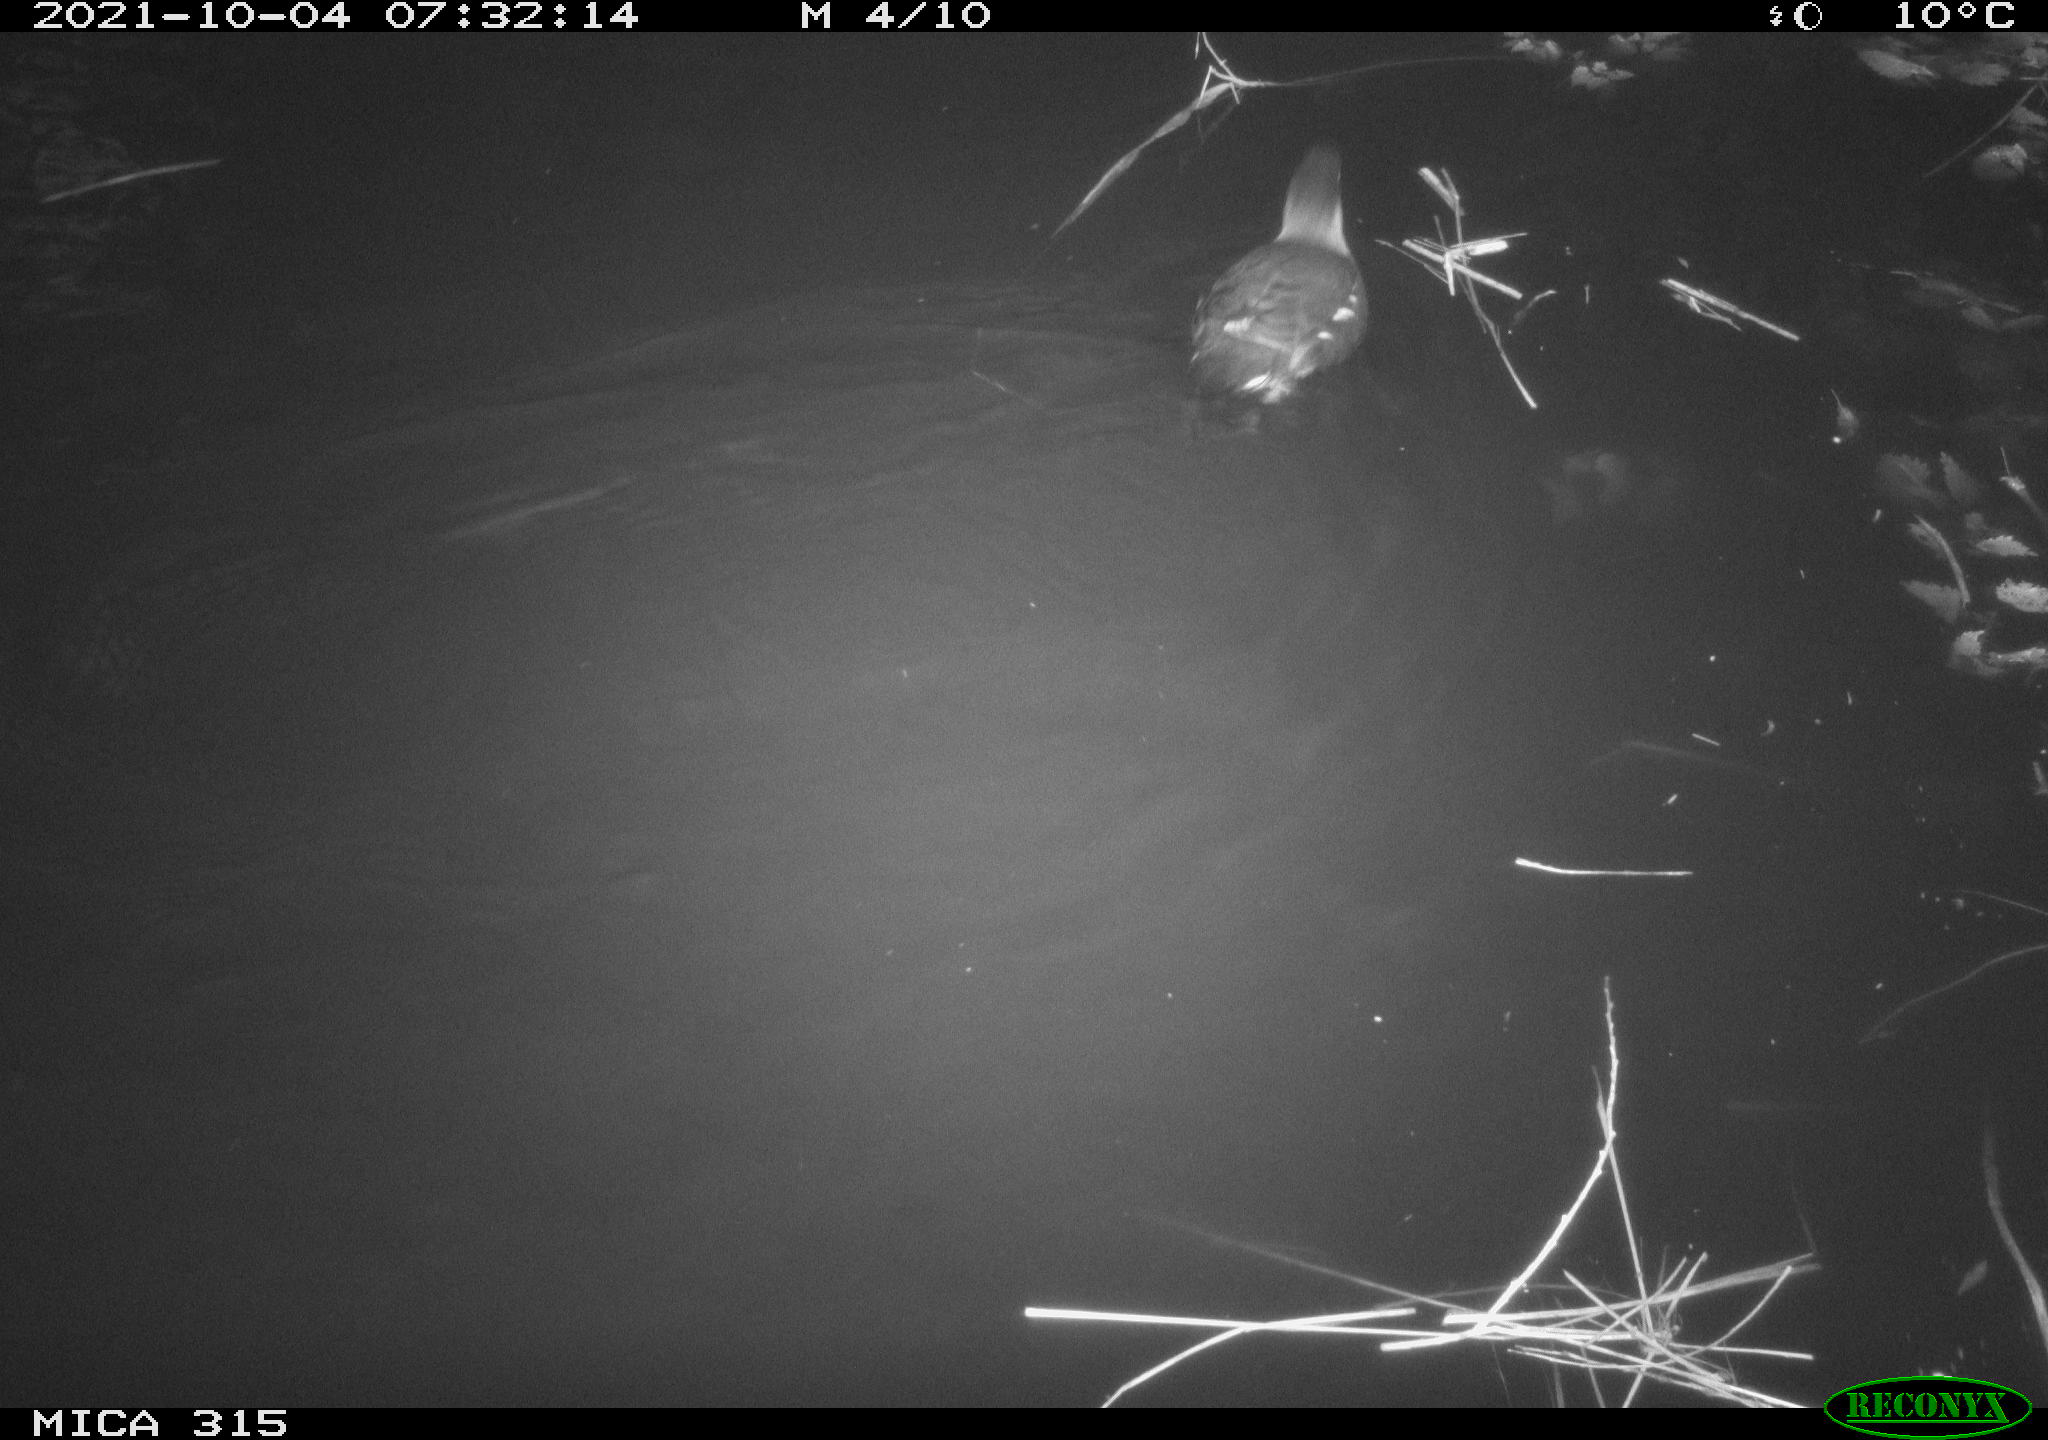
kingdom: Animalia
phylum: Chordata
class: Aves
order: Gruiformes
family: Rallidae
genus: Gallinula
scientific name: Gallinula chloropus
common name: Common moorhen
